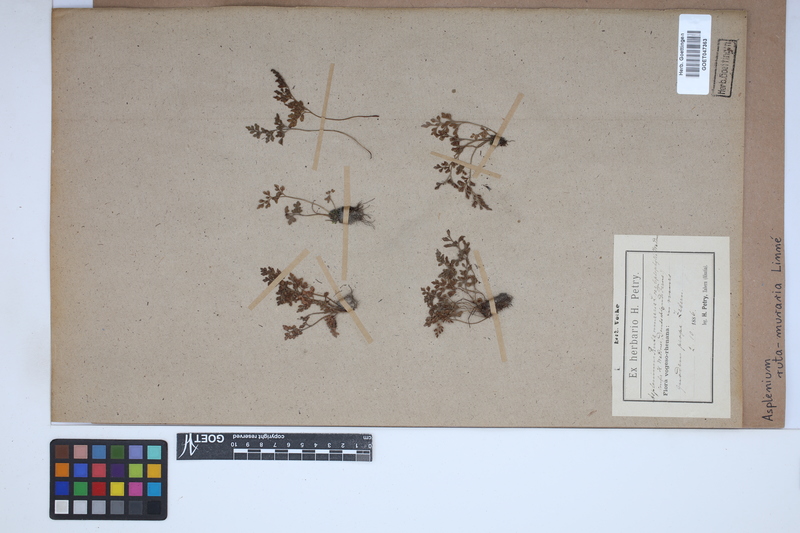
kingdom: Plantae
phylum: Tracheophyta
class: Polypodiopsida
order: Polypodiales
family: Aspleniaceae
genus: Asplenium
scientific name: Asplenium ruta-muraria
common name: Wall-rue
